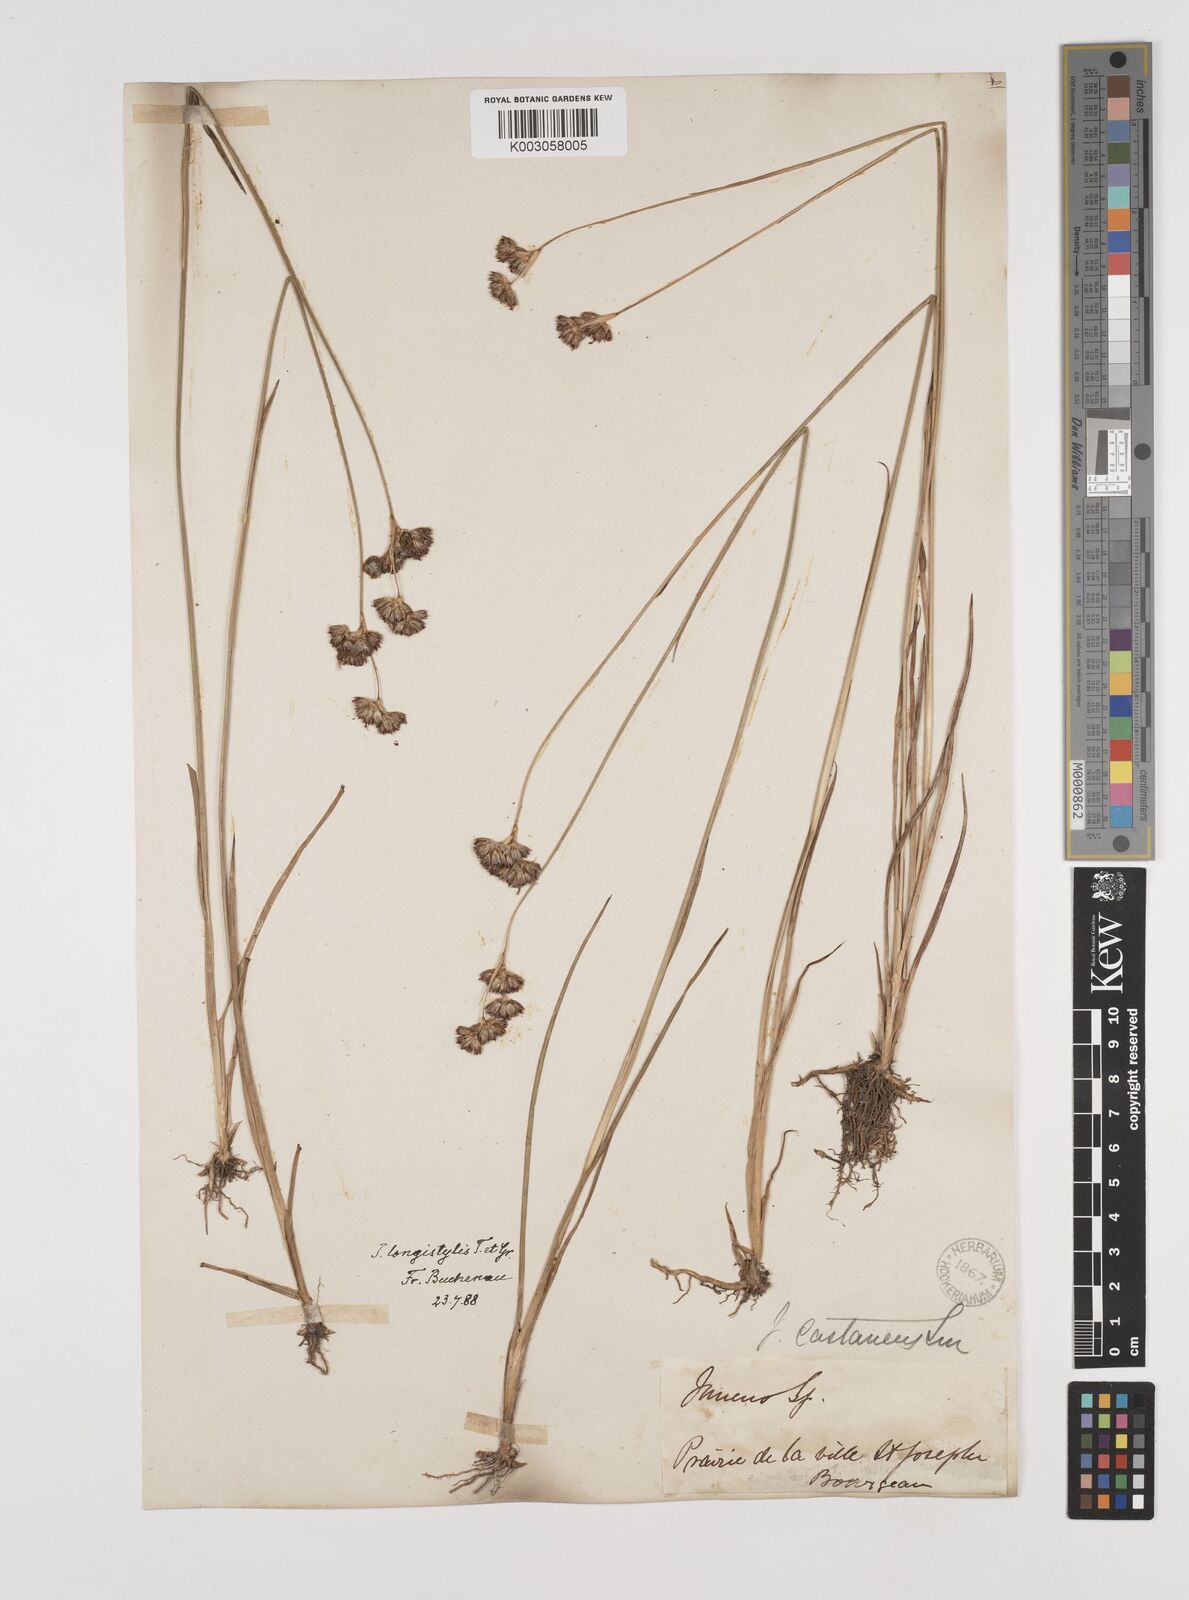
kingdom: Plantae
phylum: Tracheophyta
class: Liliopsida
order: Poales
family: Juncaceae
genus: Juncus
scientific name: Juncus longistylis
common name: Long-style rush
